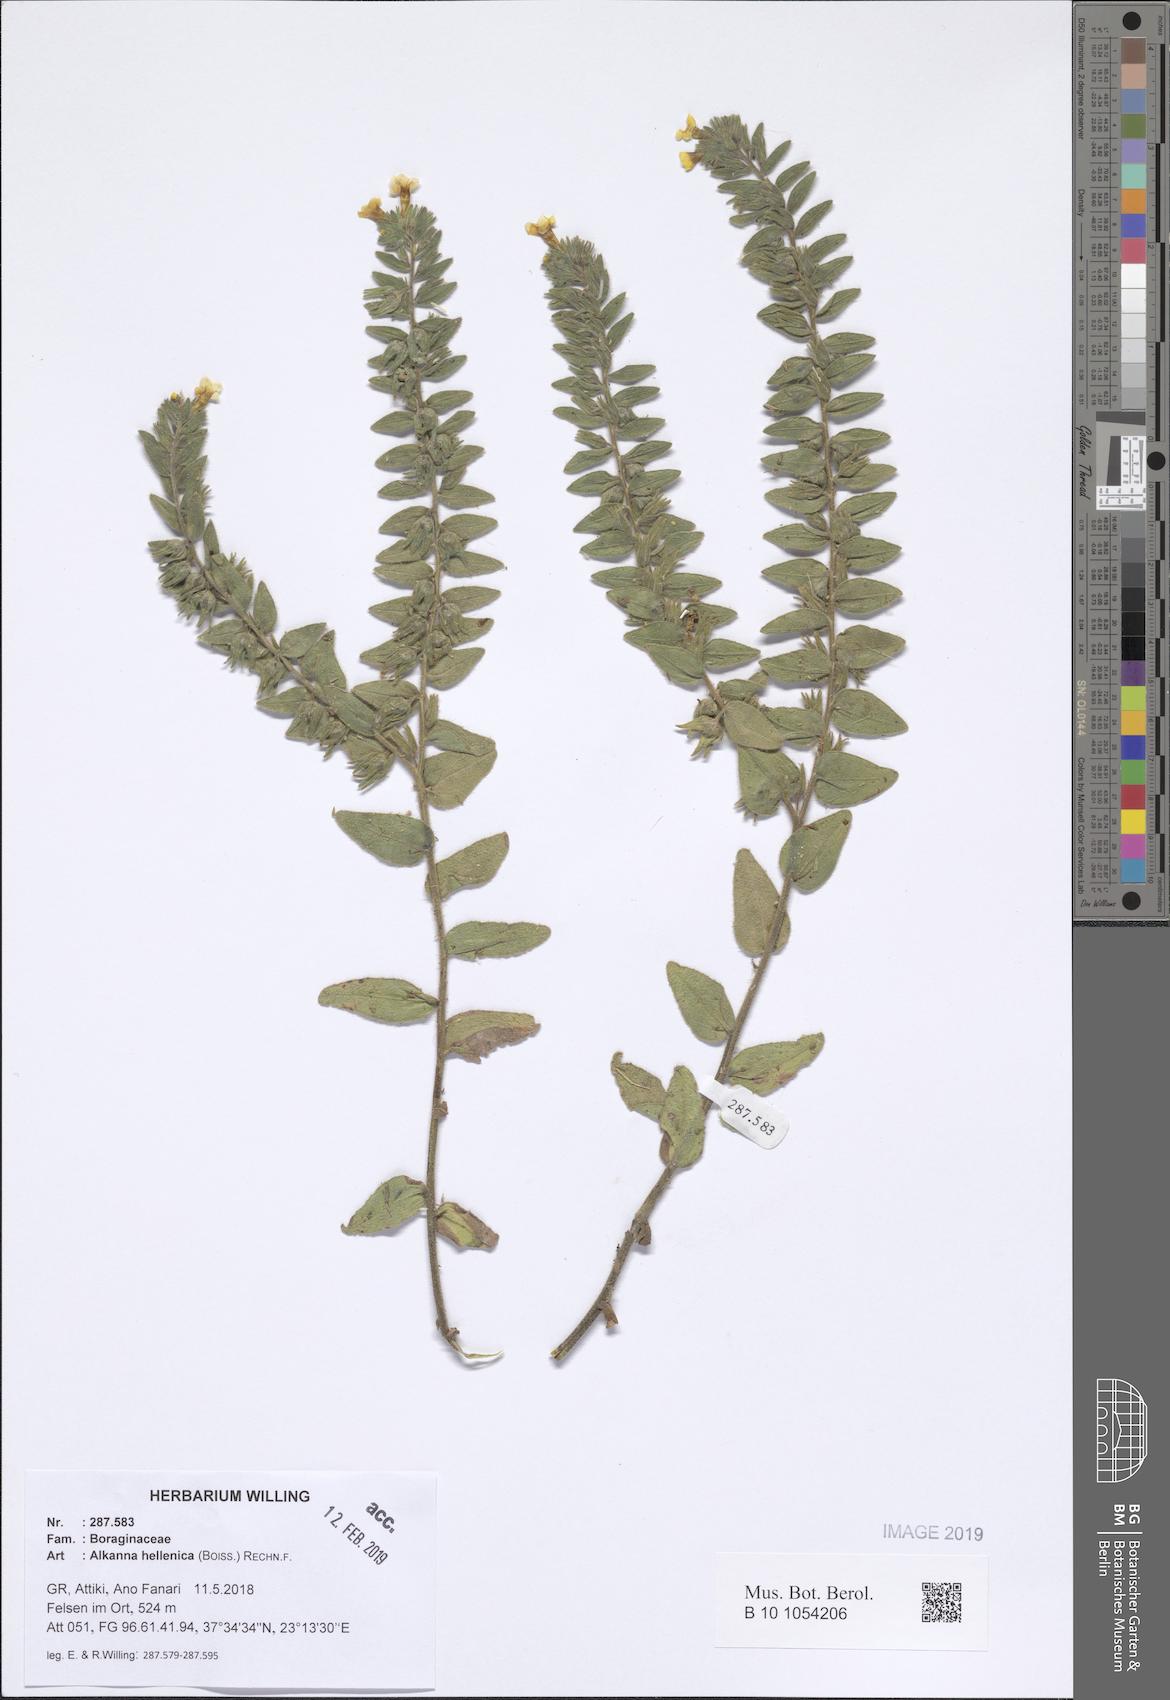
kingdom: Plantae
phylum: Tracheophyta
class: Magnoliopsida
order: Boraginales
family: Boraginaceae
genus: Alkanna
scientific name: Alkanna hellenica
